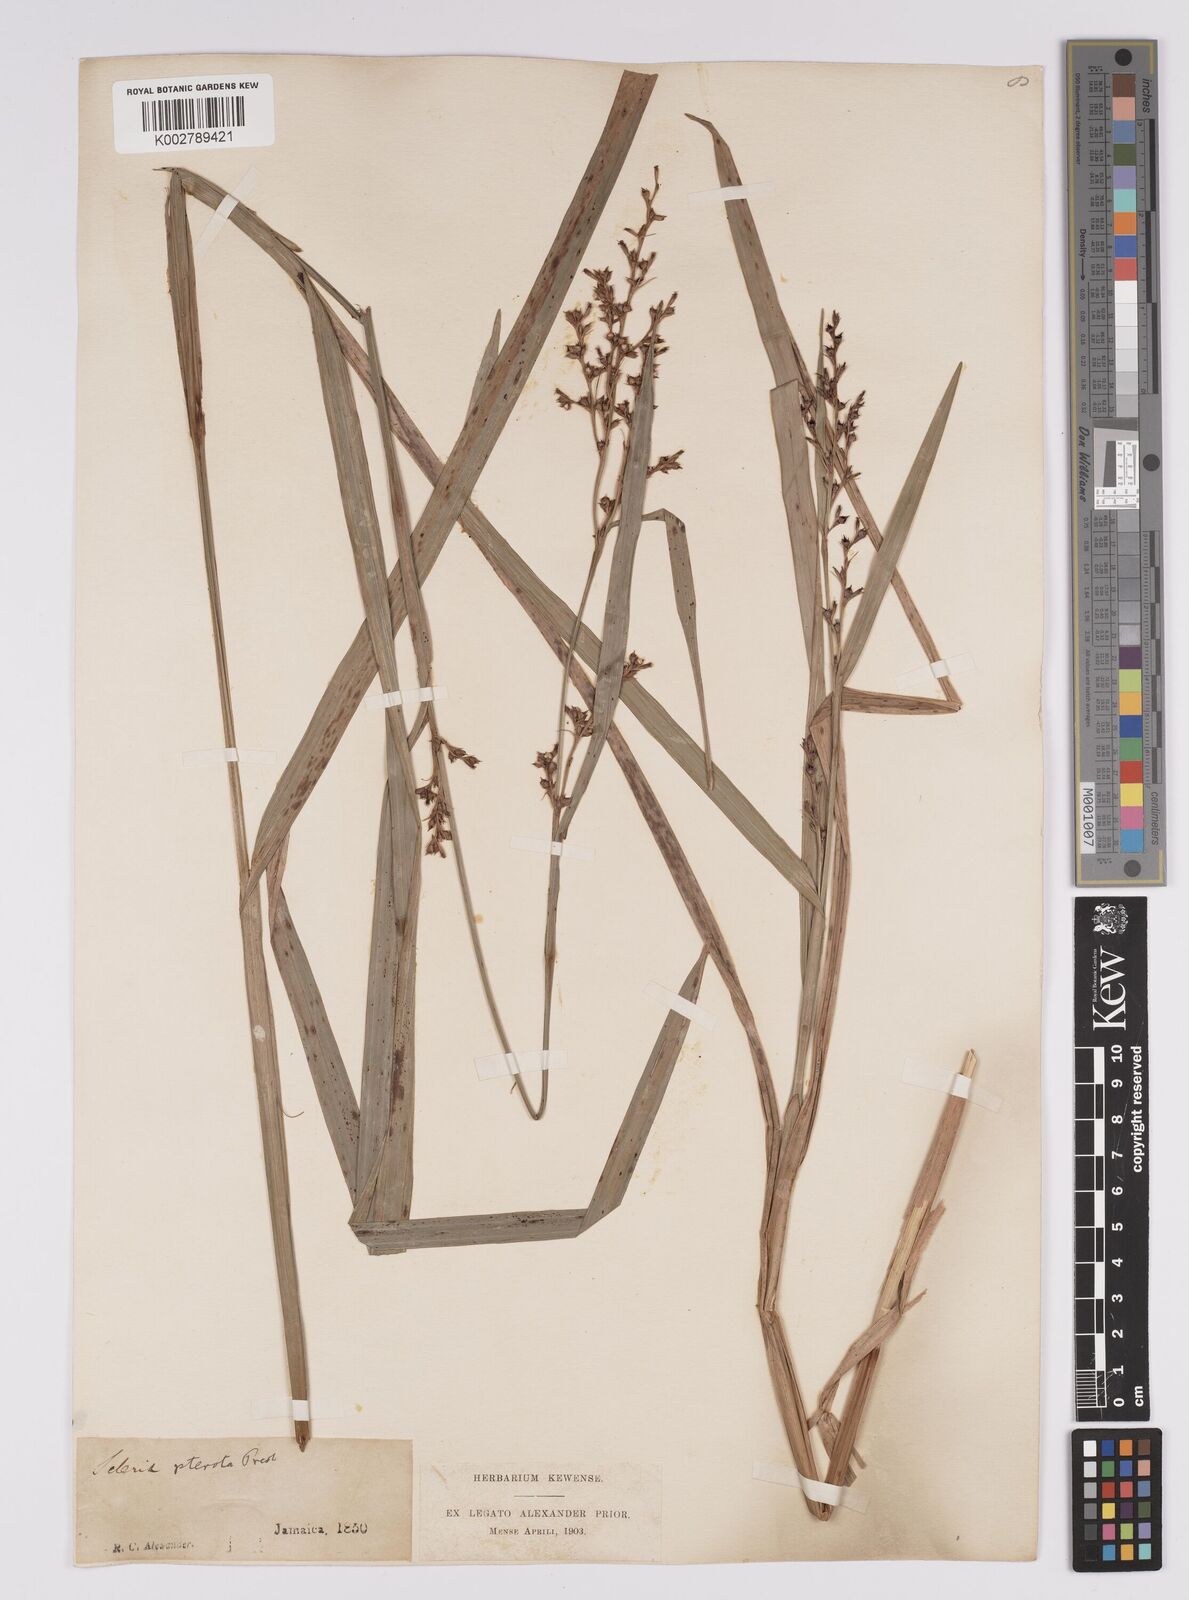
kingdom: Plantae
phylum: Tracheophyta
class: Liliopsida
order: Poales
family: Cyperaceae
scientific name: Cyperaceae
